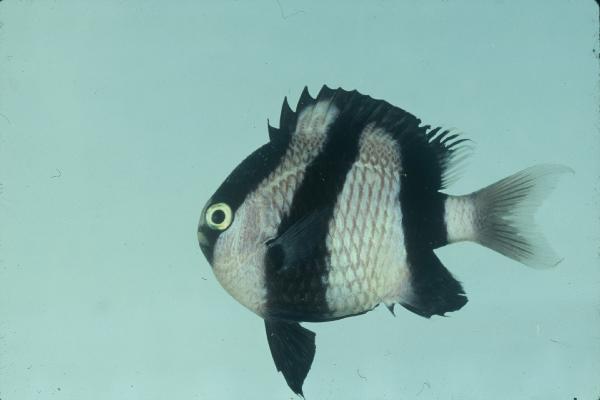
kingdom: Animalia
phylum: Chordata
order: Perciformes
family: Pomacentridae
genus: Dascyllus
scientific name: Dascyllus aruanus
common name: Humbug dascyllus
